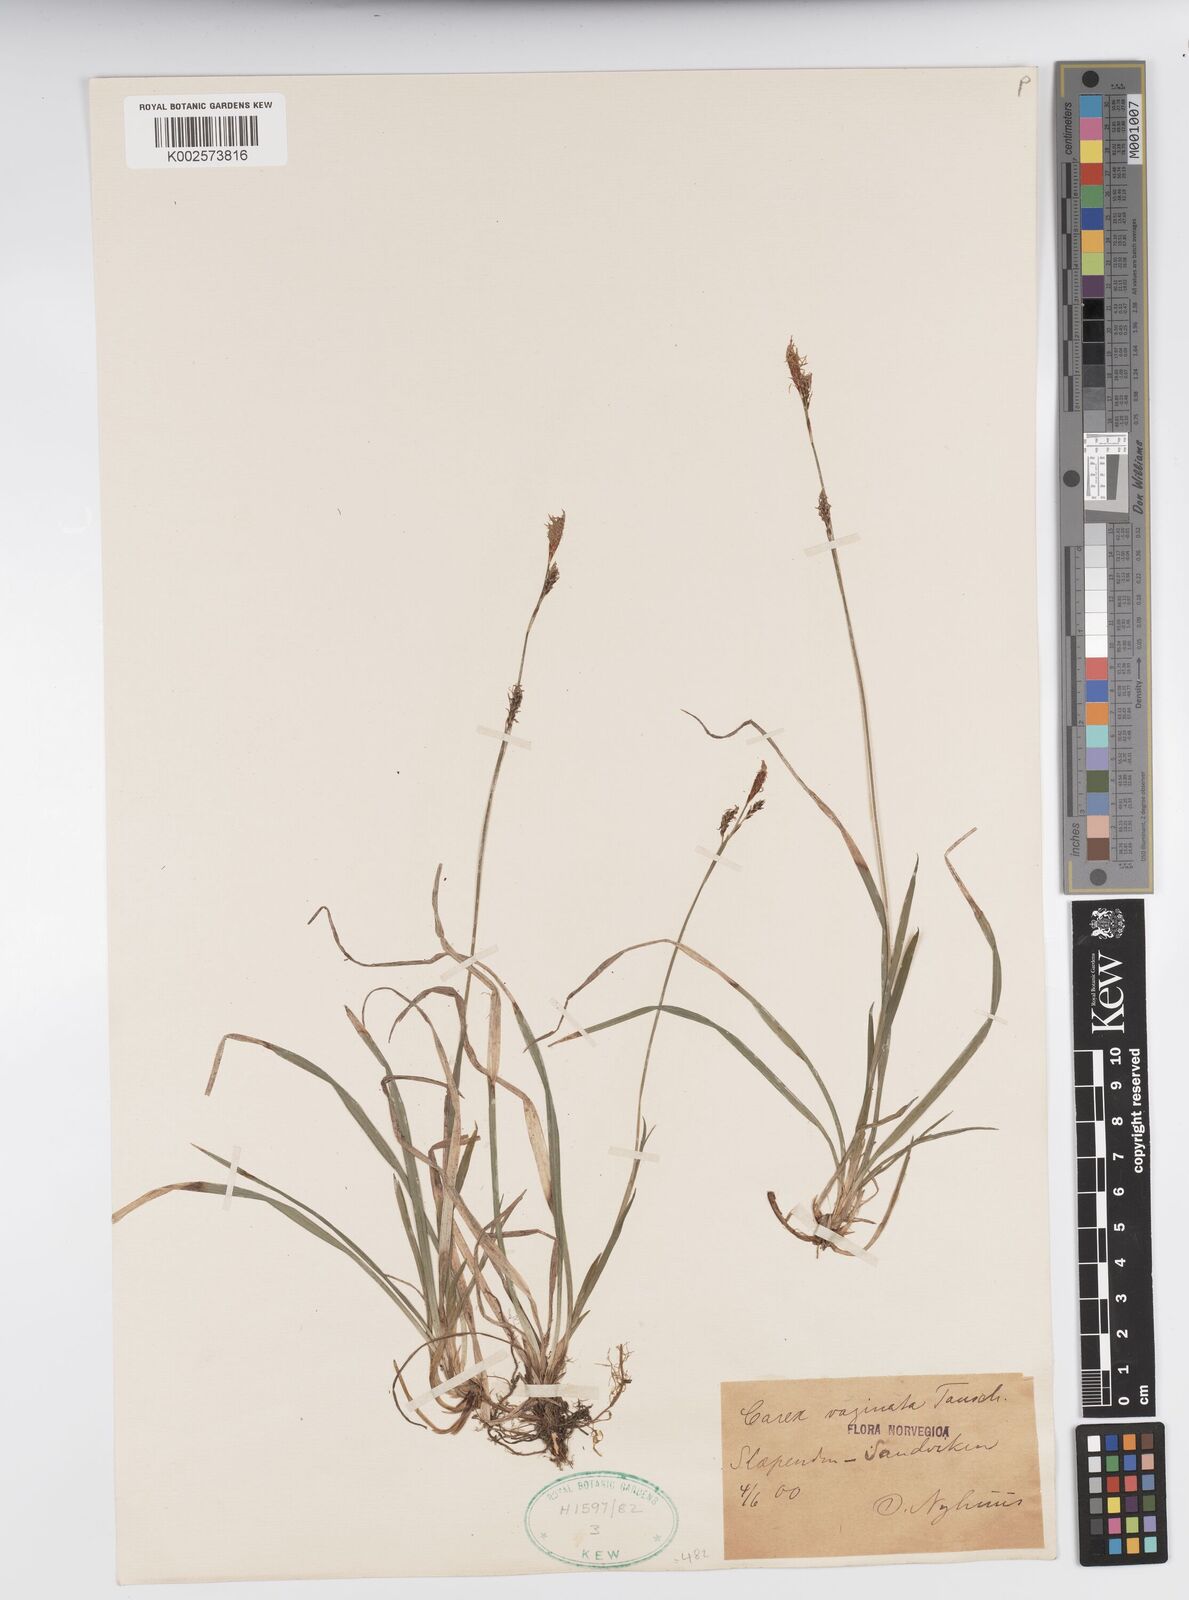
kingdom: Plantae
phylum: Tracheophyta
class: Liliopsida
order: Poales
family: Cyperaceae
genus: Carex
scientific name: Carex vaginata
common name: Sheathed sedge
